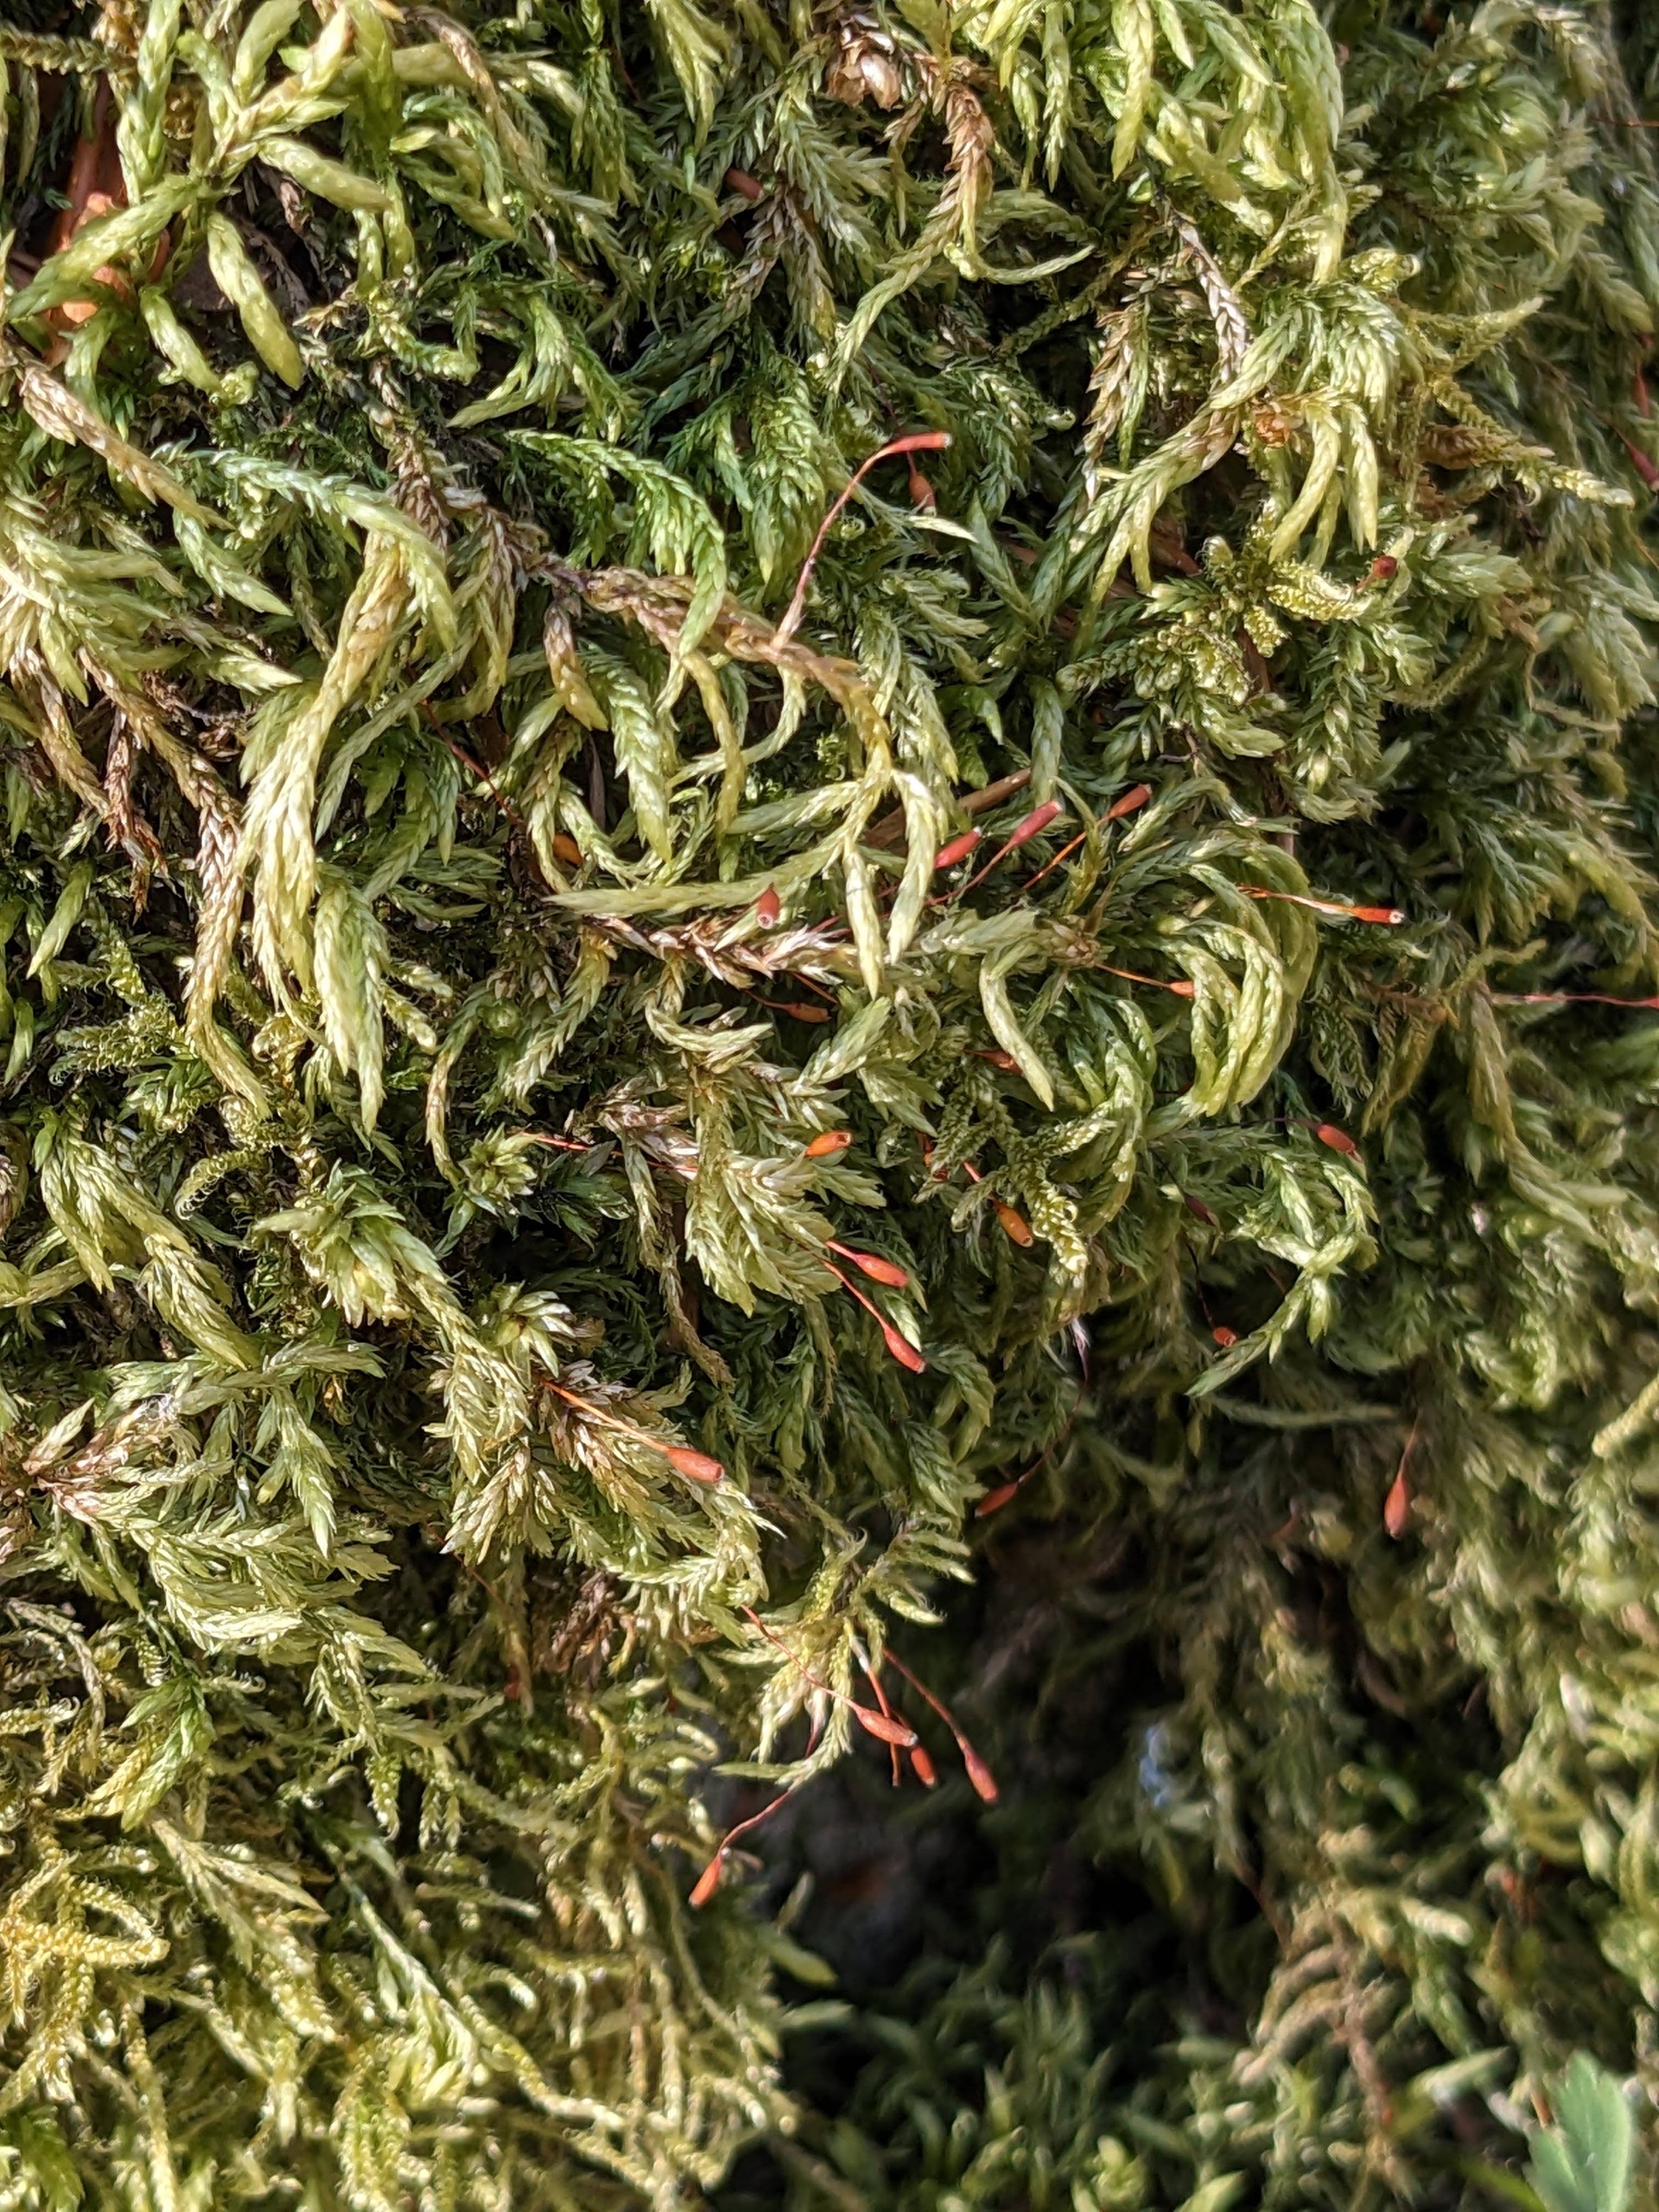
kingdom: Plantae
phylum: Bryophyta
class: Bryopsida
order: Hypnales
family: Lembophyllaceae
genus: Isothecium
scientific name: Isothecium alopecuroides
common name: Stor stammemos
